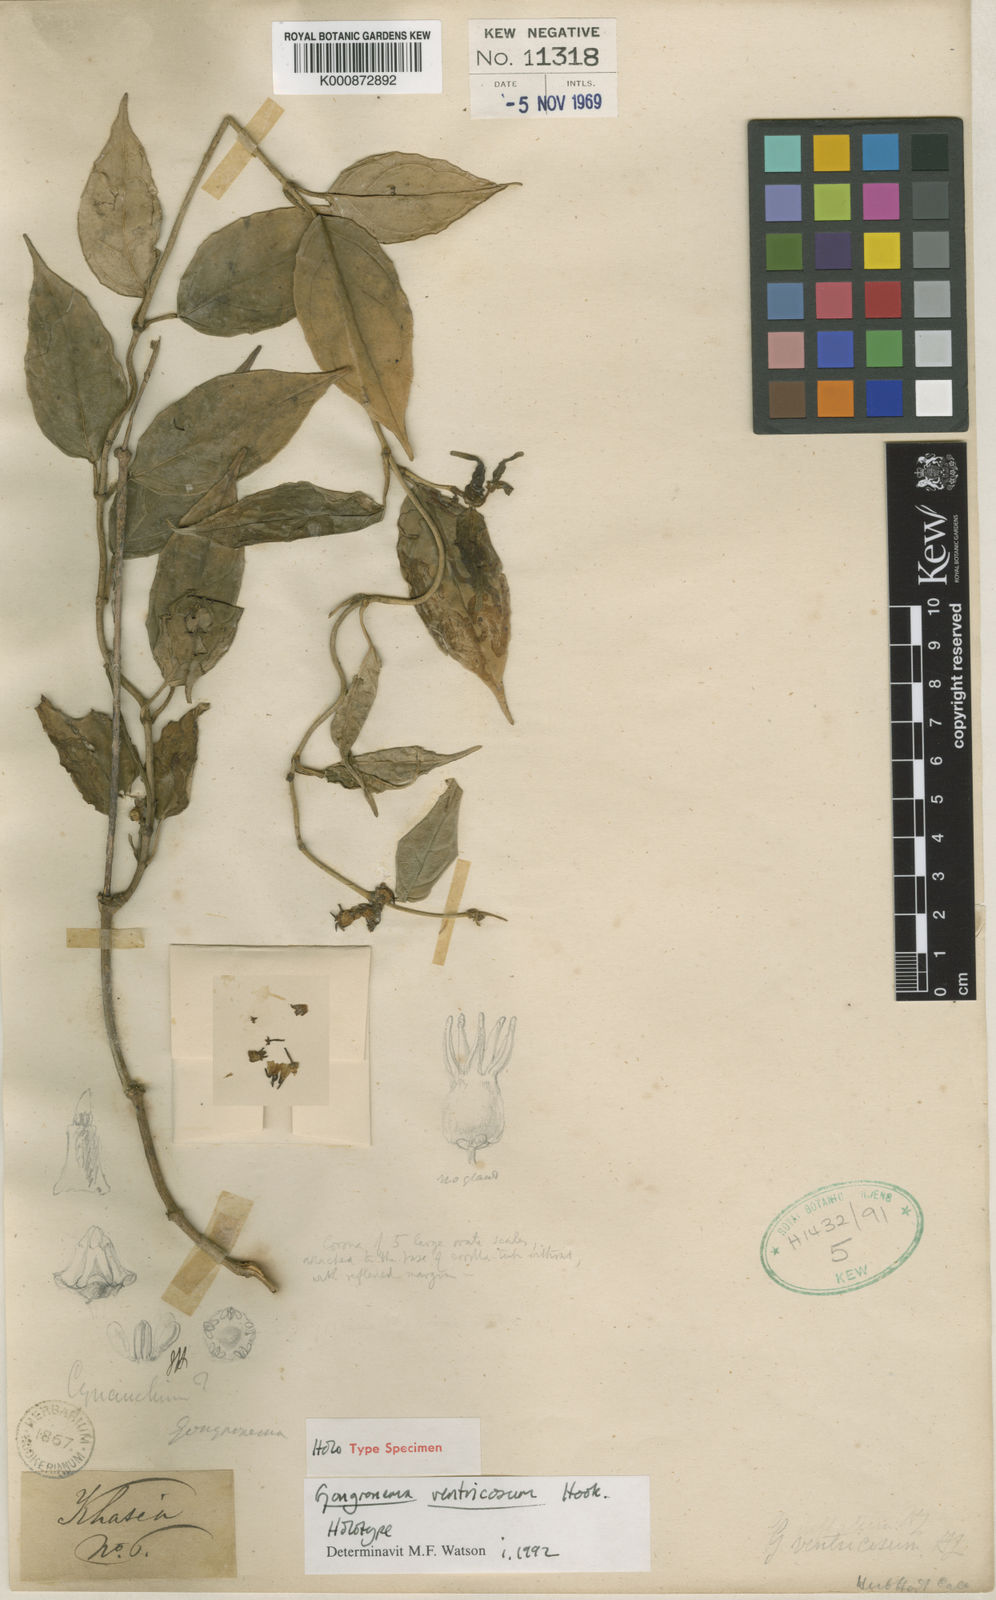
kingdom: Plantae
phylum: Tracheophyta
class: Magnoliopsida
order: Gentianales
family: Apocynaceae
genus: Gongronema
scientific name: Gongronema ventricosum
